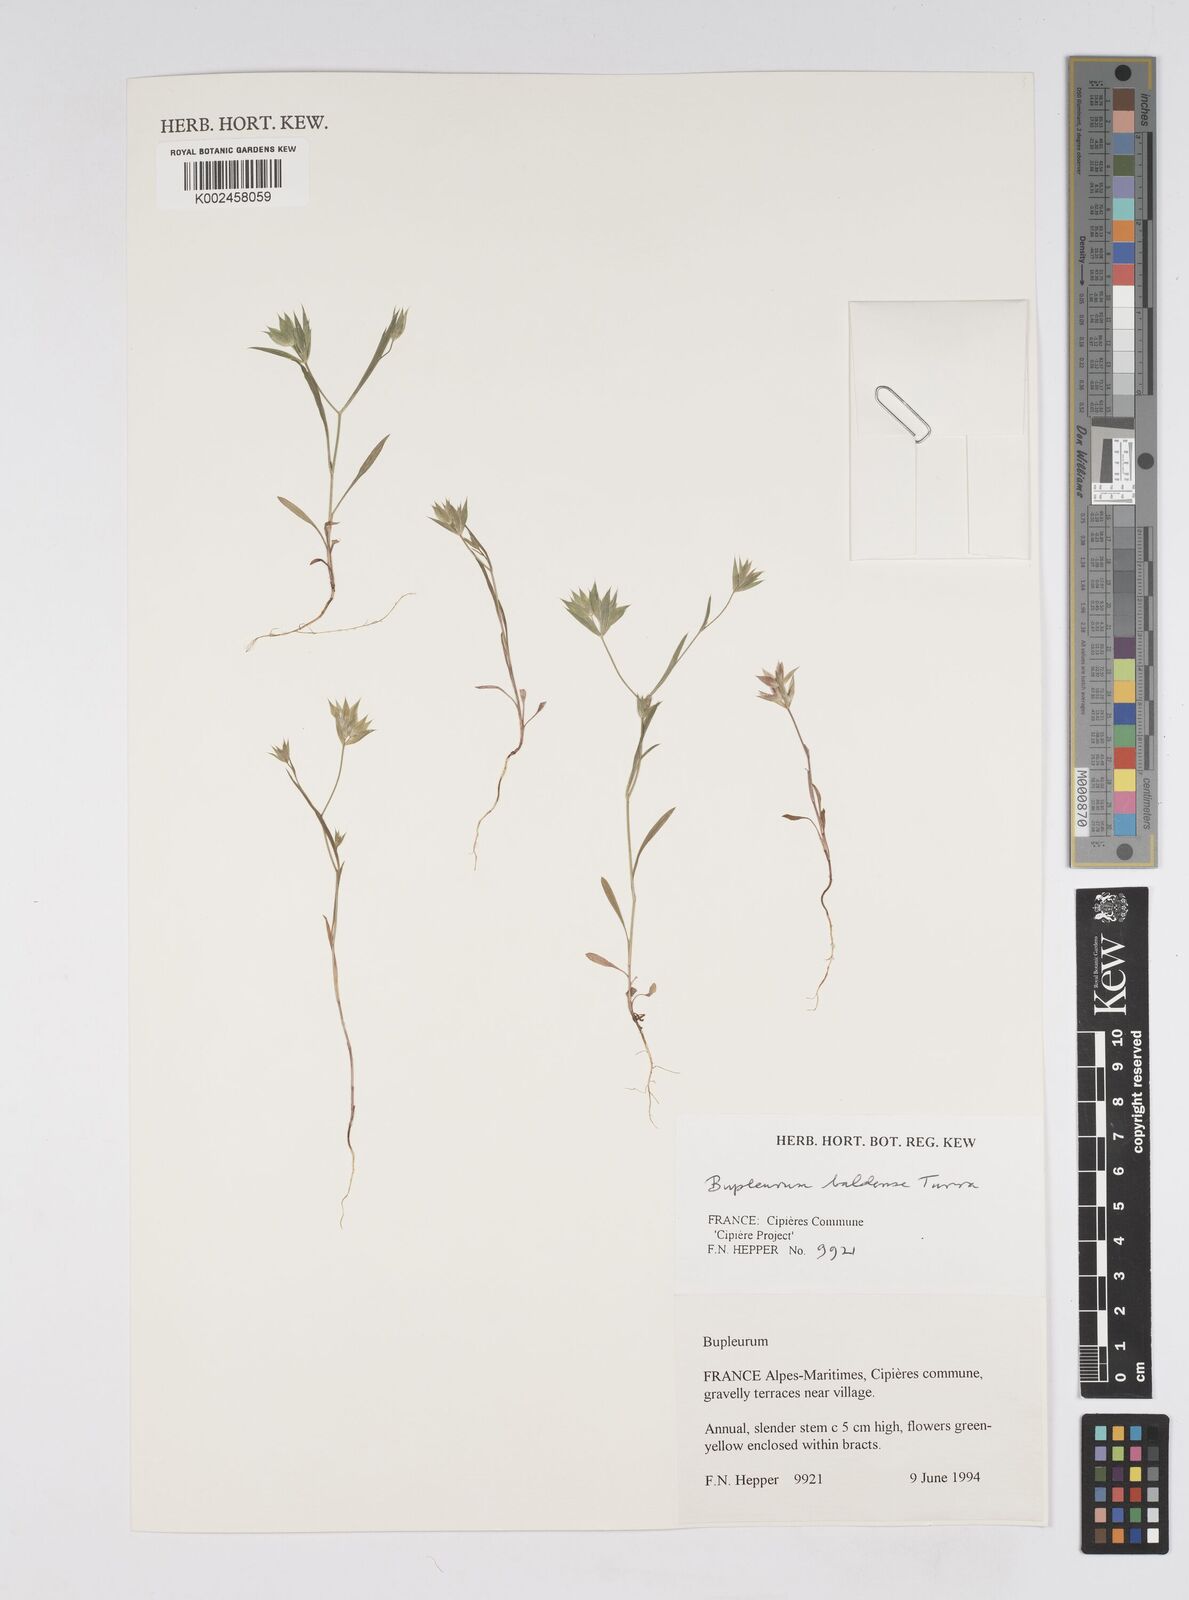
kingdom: Plantae
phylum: Tracheophyta
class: Magnoliopsida
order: Apiales
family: Apiaceae
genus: Bupleurum
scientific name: Bupleurum baldense
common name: Small hare's-ear
